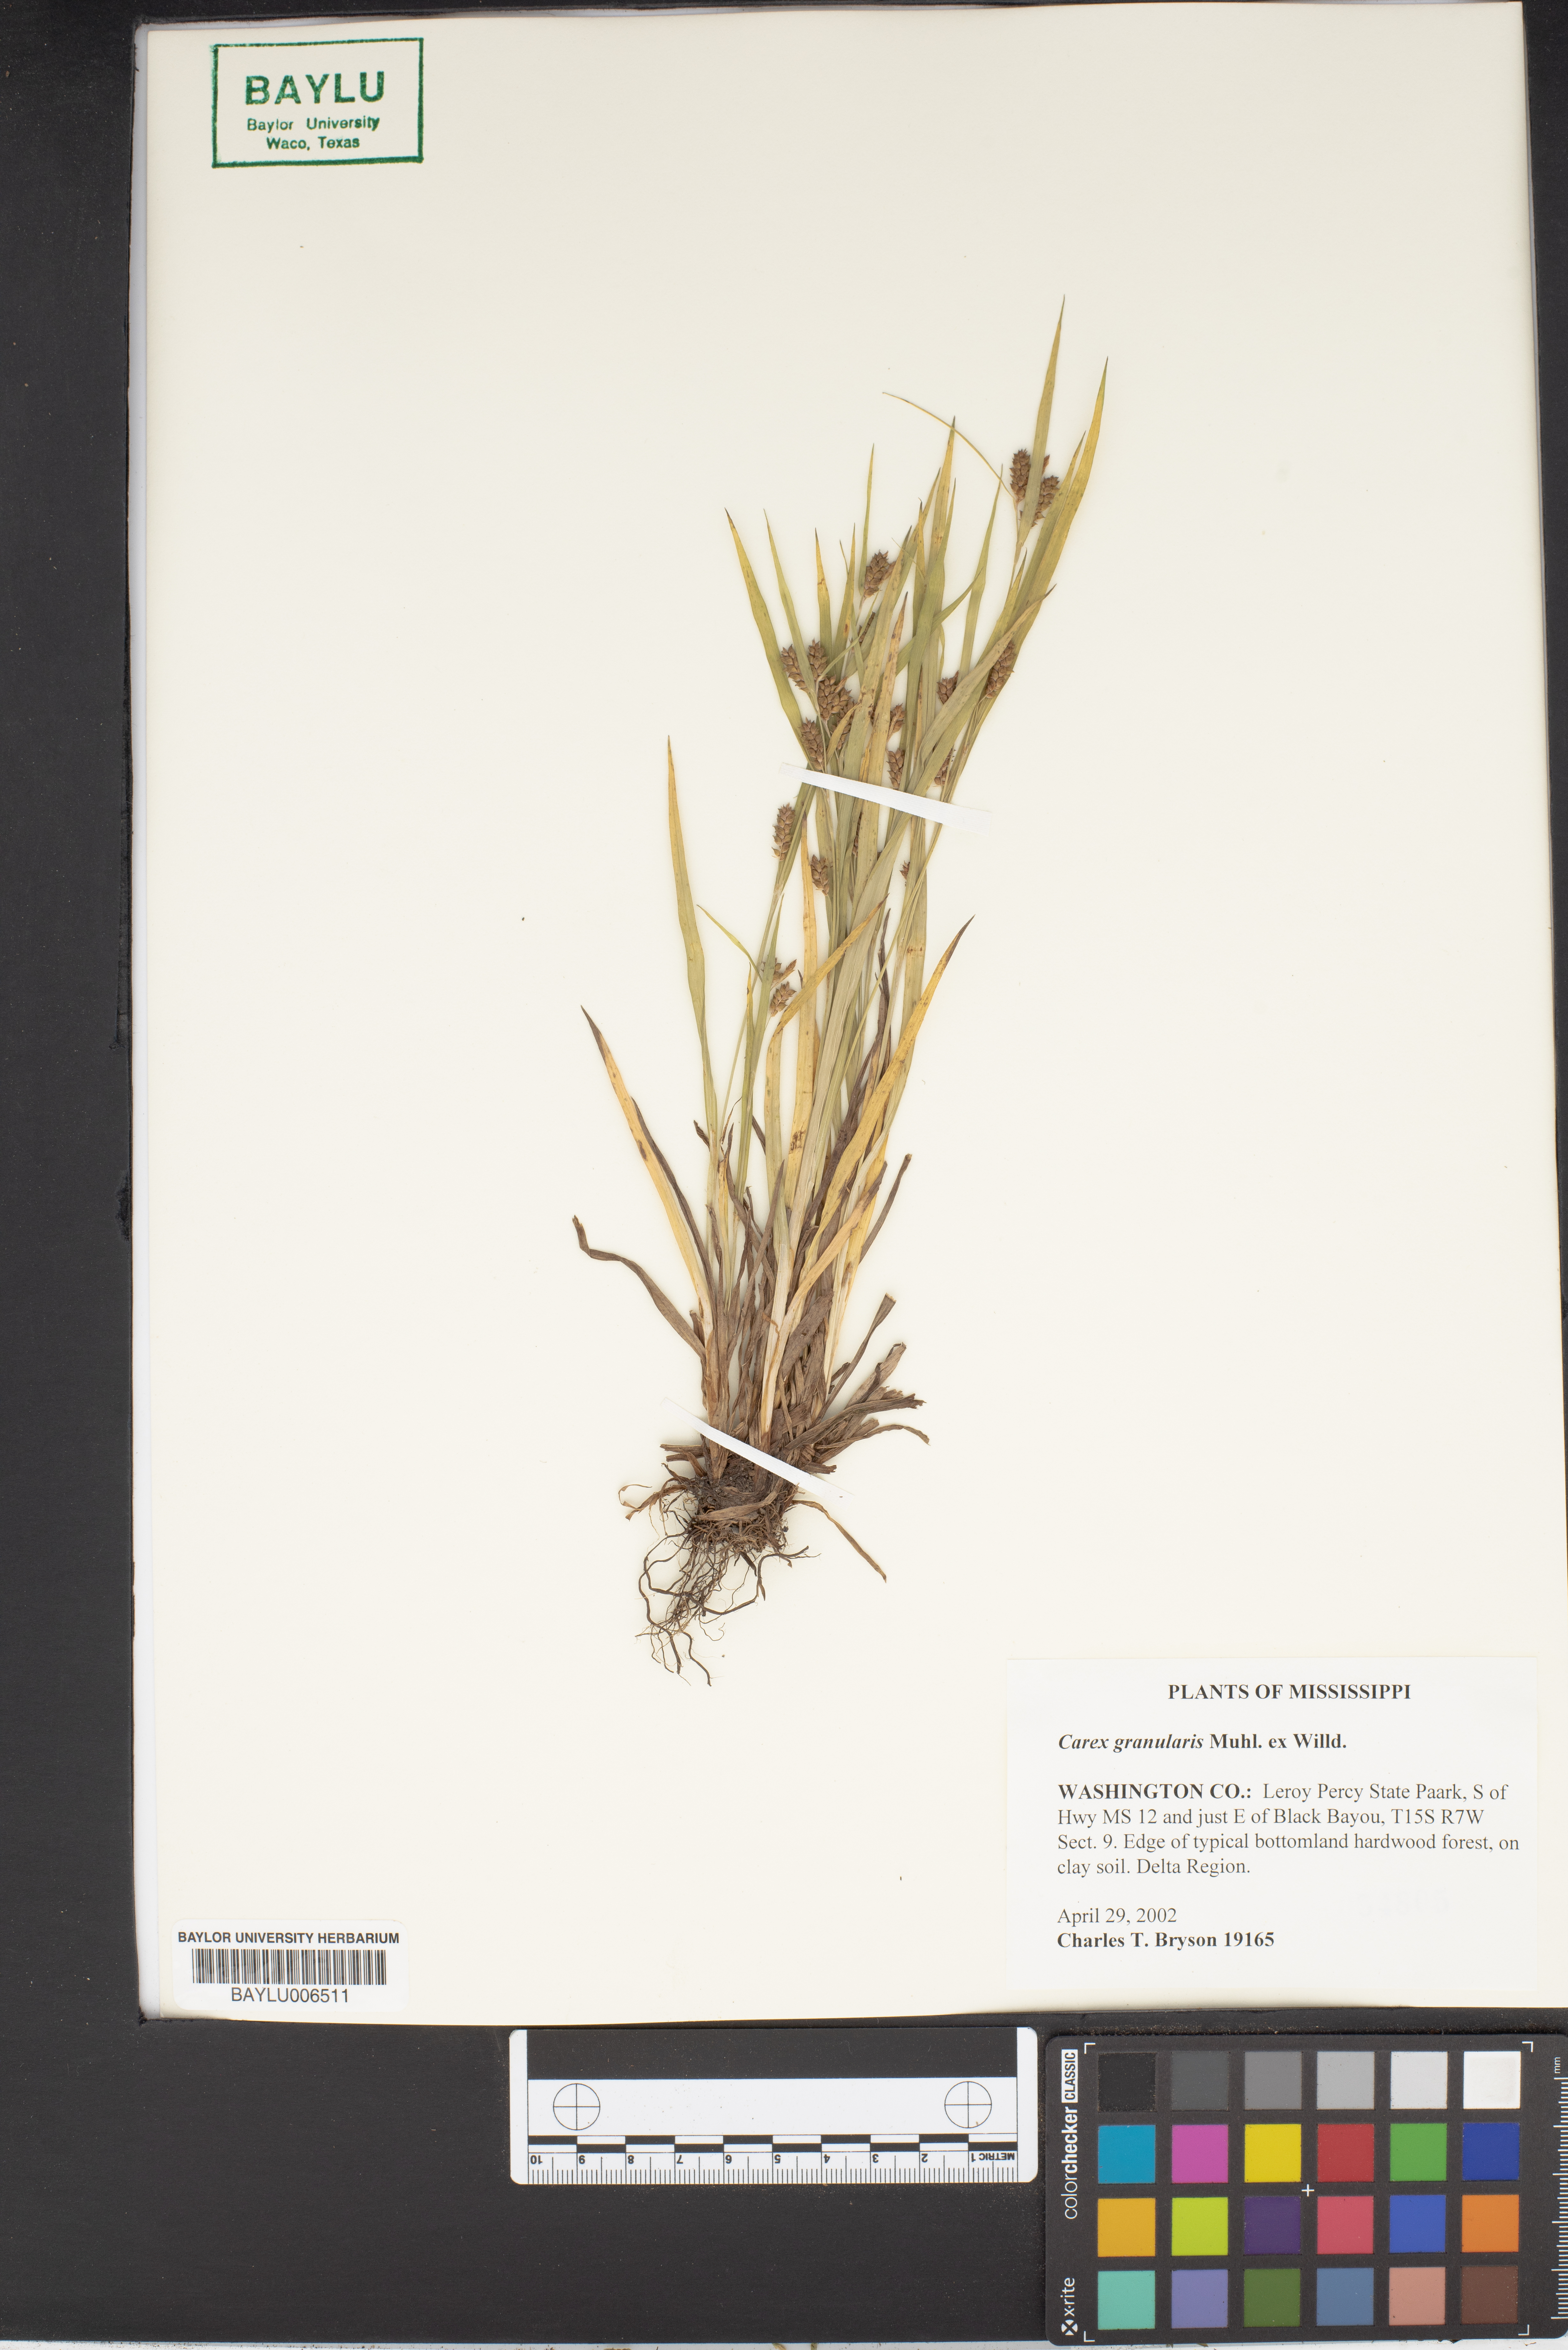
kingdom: Plantae
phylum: Tracheophyta
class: Liliopsida
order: Poales
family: Cyperaceae
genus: Carex
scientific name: Carex granularis
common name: Granular sedge
